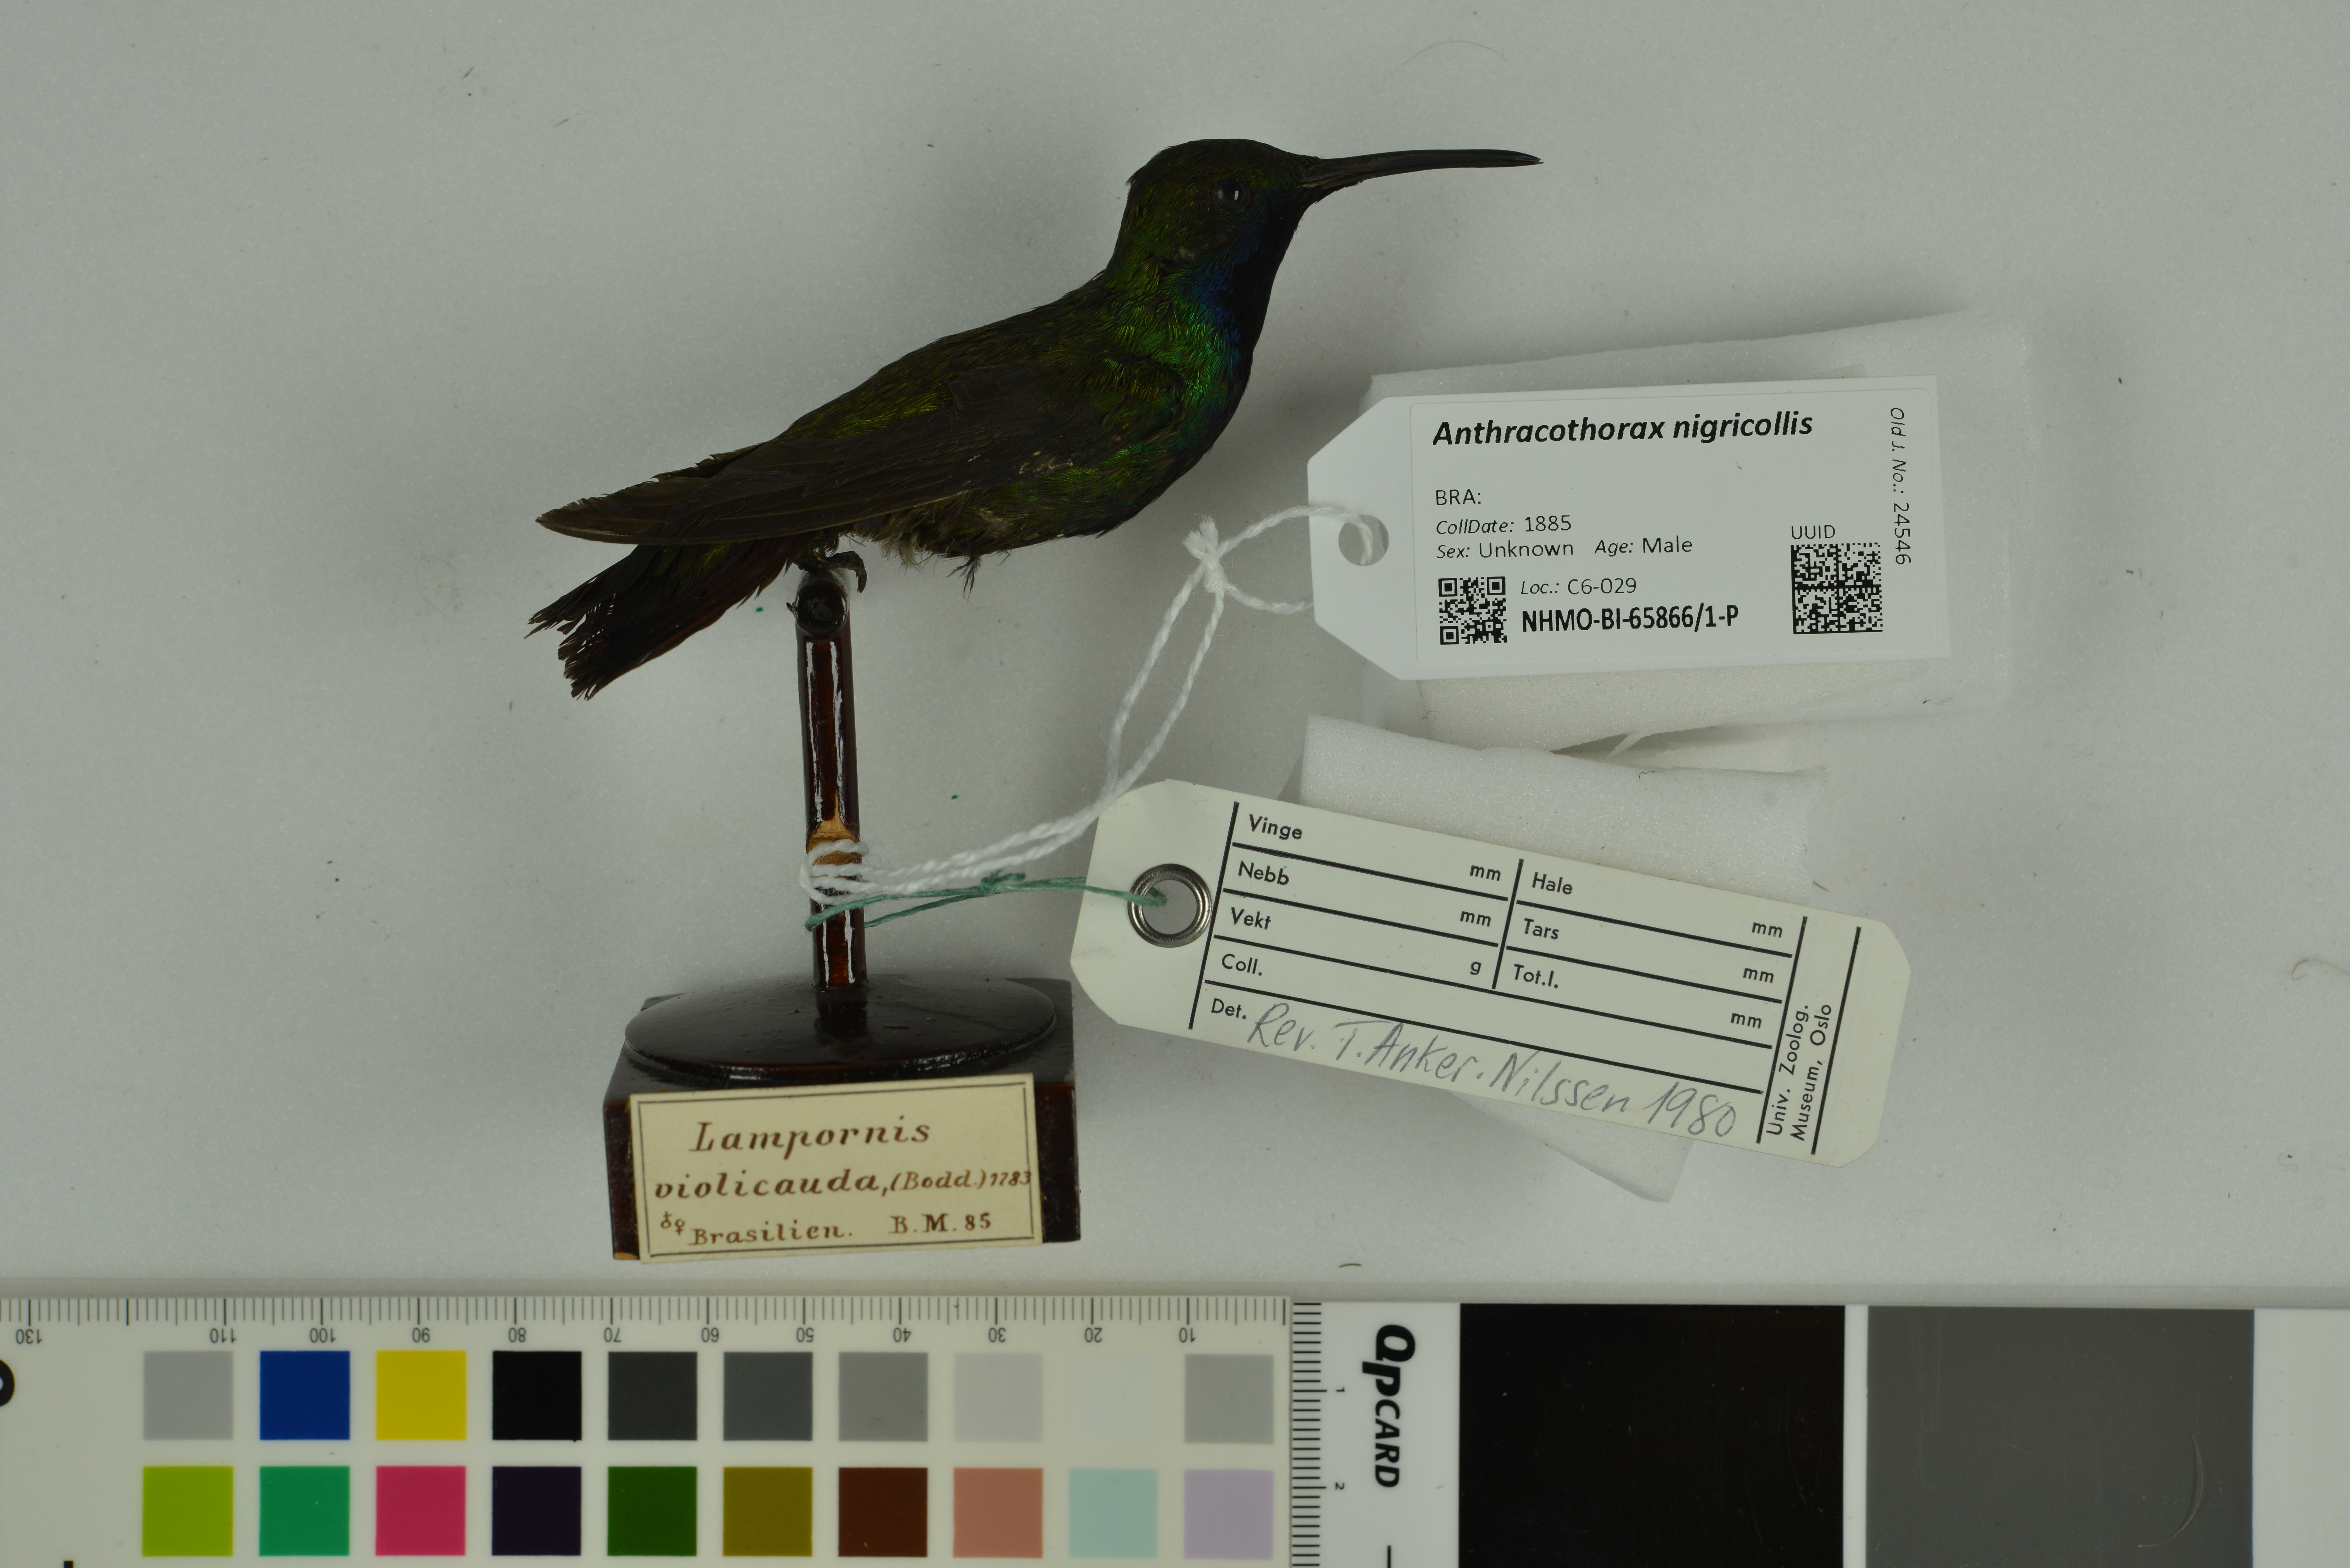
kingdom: Animalia
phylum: Chordata
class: Aves
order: Apodiformes
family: Trochilidae
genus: Anthracothorax
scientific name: Anthracothorax nigricollis
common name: Black-throated mango
